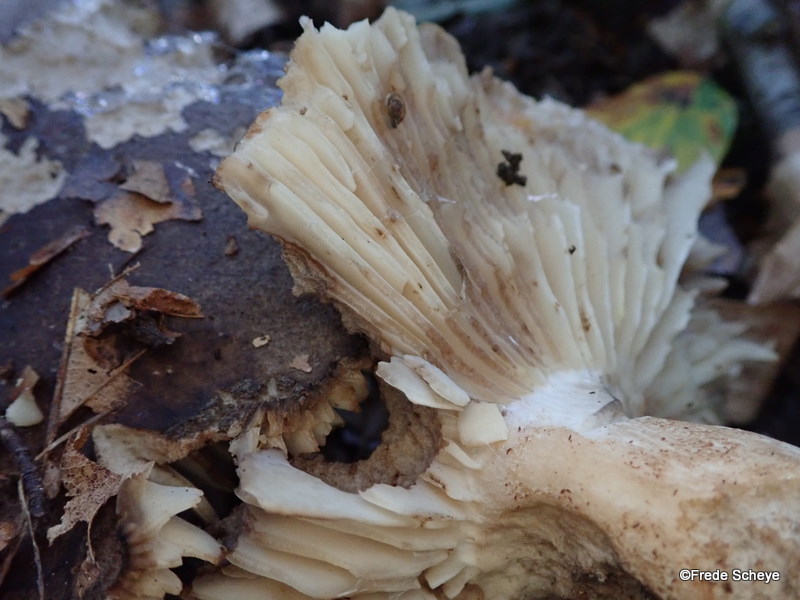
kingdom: Fungi
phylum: Basidiomycota
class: Agaricomycetes
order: Russulales
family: Russulaceae
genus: Russula
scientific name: Russula adusta
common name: sværtende skørhat
